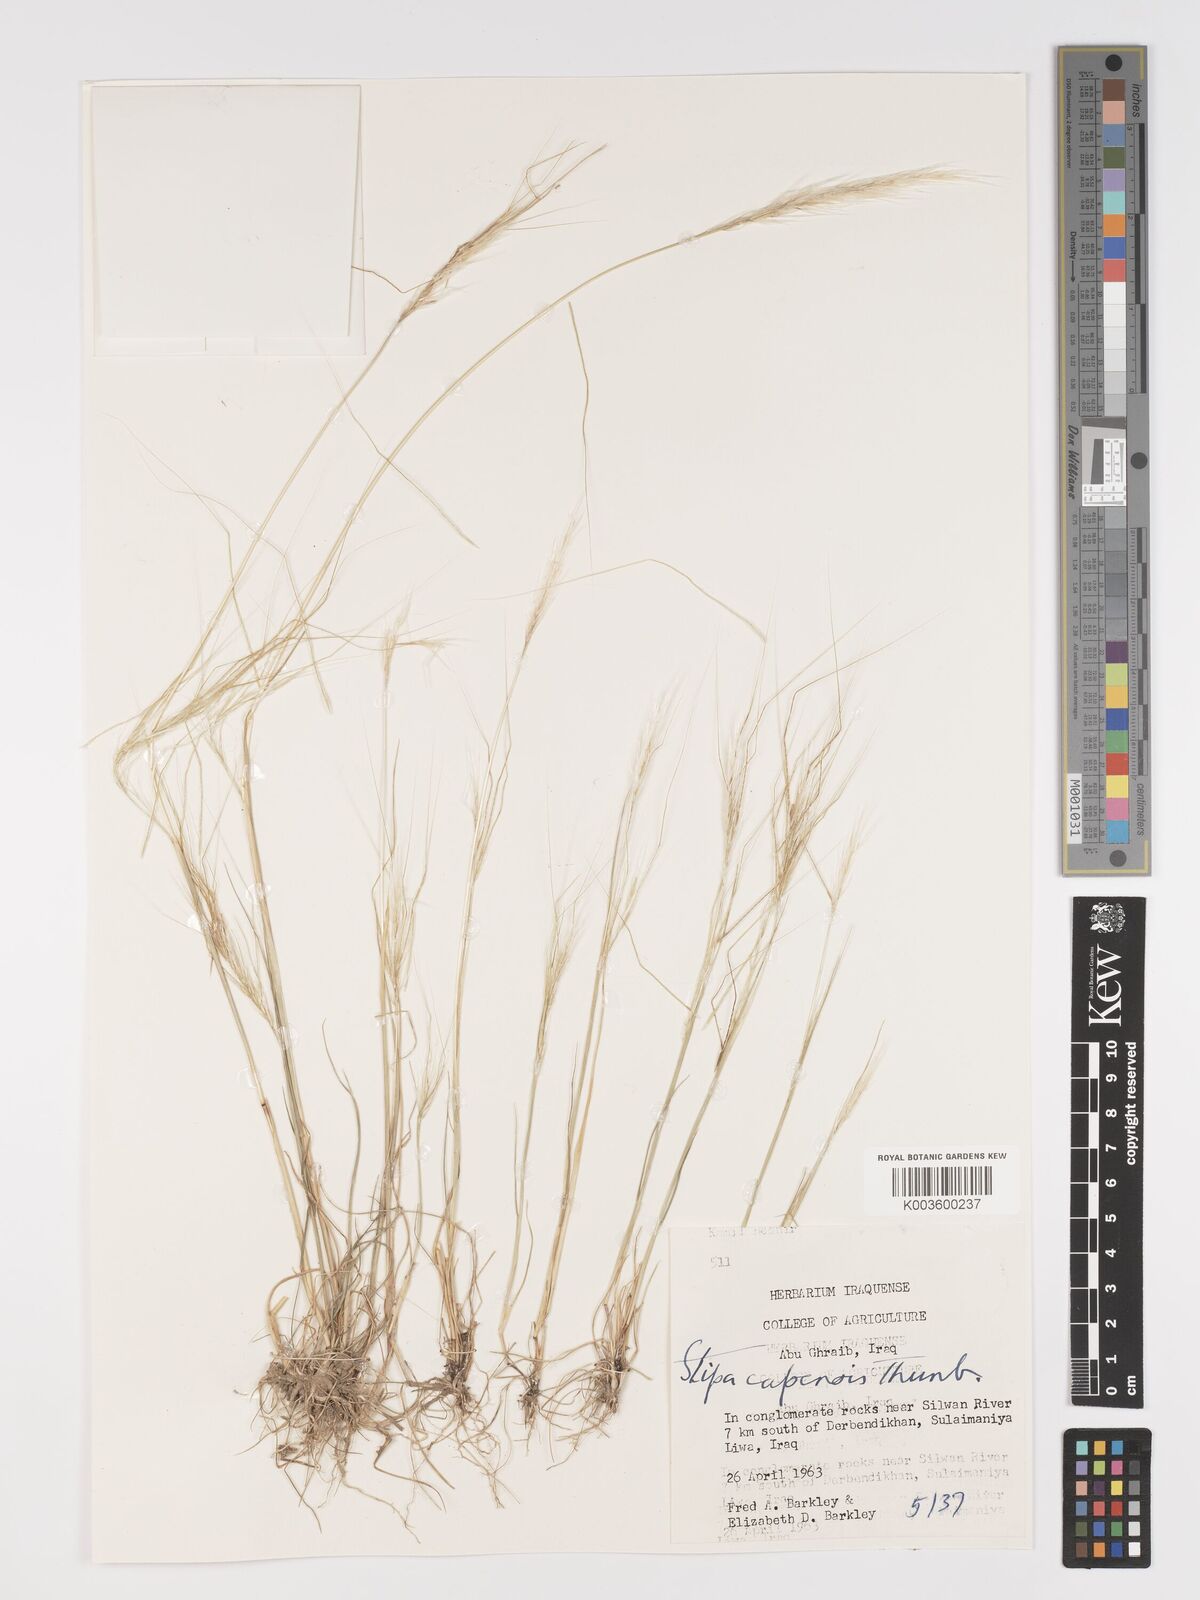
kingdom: Plantae
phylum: Tracheophyta
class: Liliopsida
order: Poales
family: Poaceae
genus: Stipellula
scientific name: Stipellula capensis
